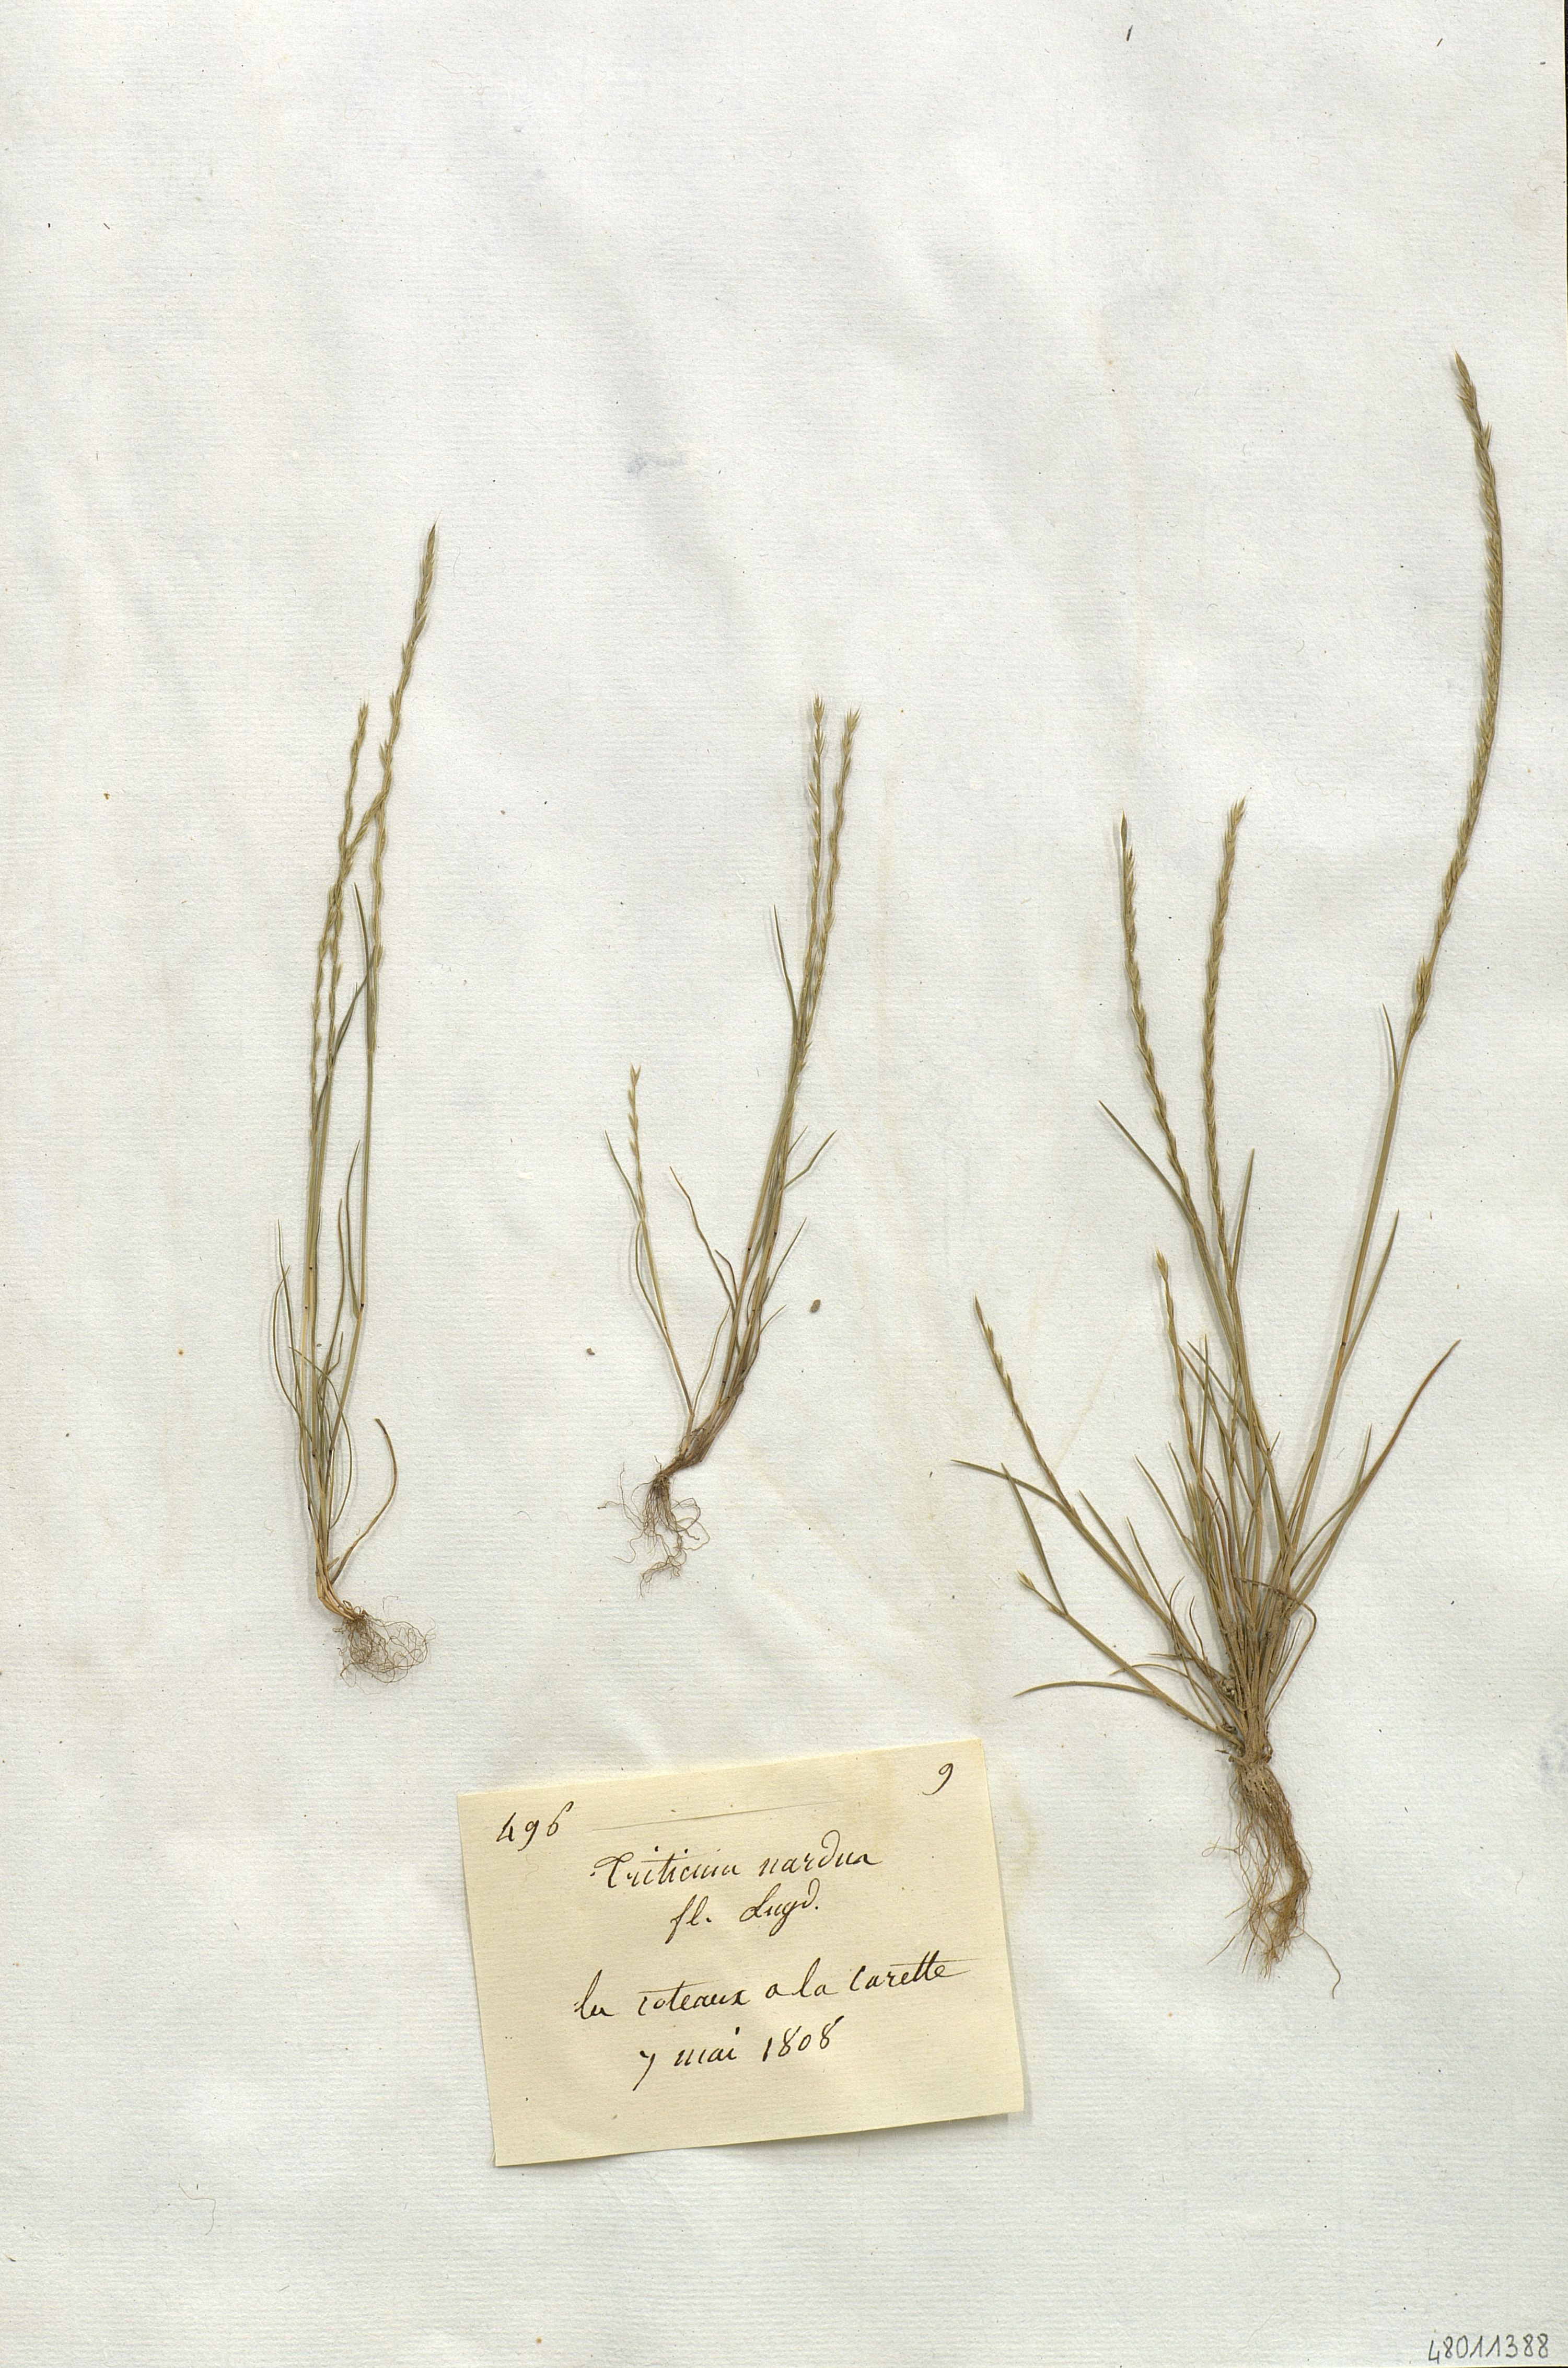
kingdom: Plantae
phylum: Tracheophyta
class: Liliopsida
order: Poales
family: Poaceae
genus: Festuca
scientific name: Festuca lachenalii
